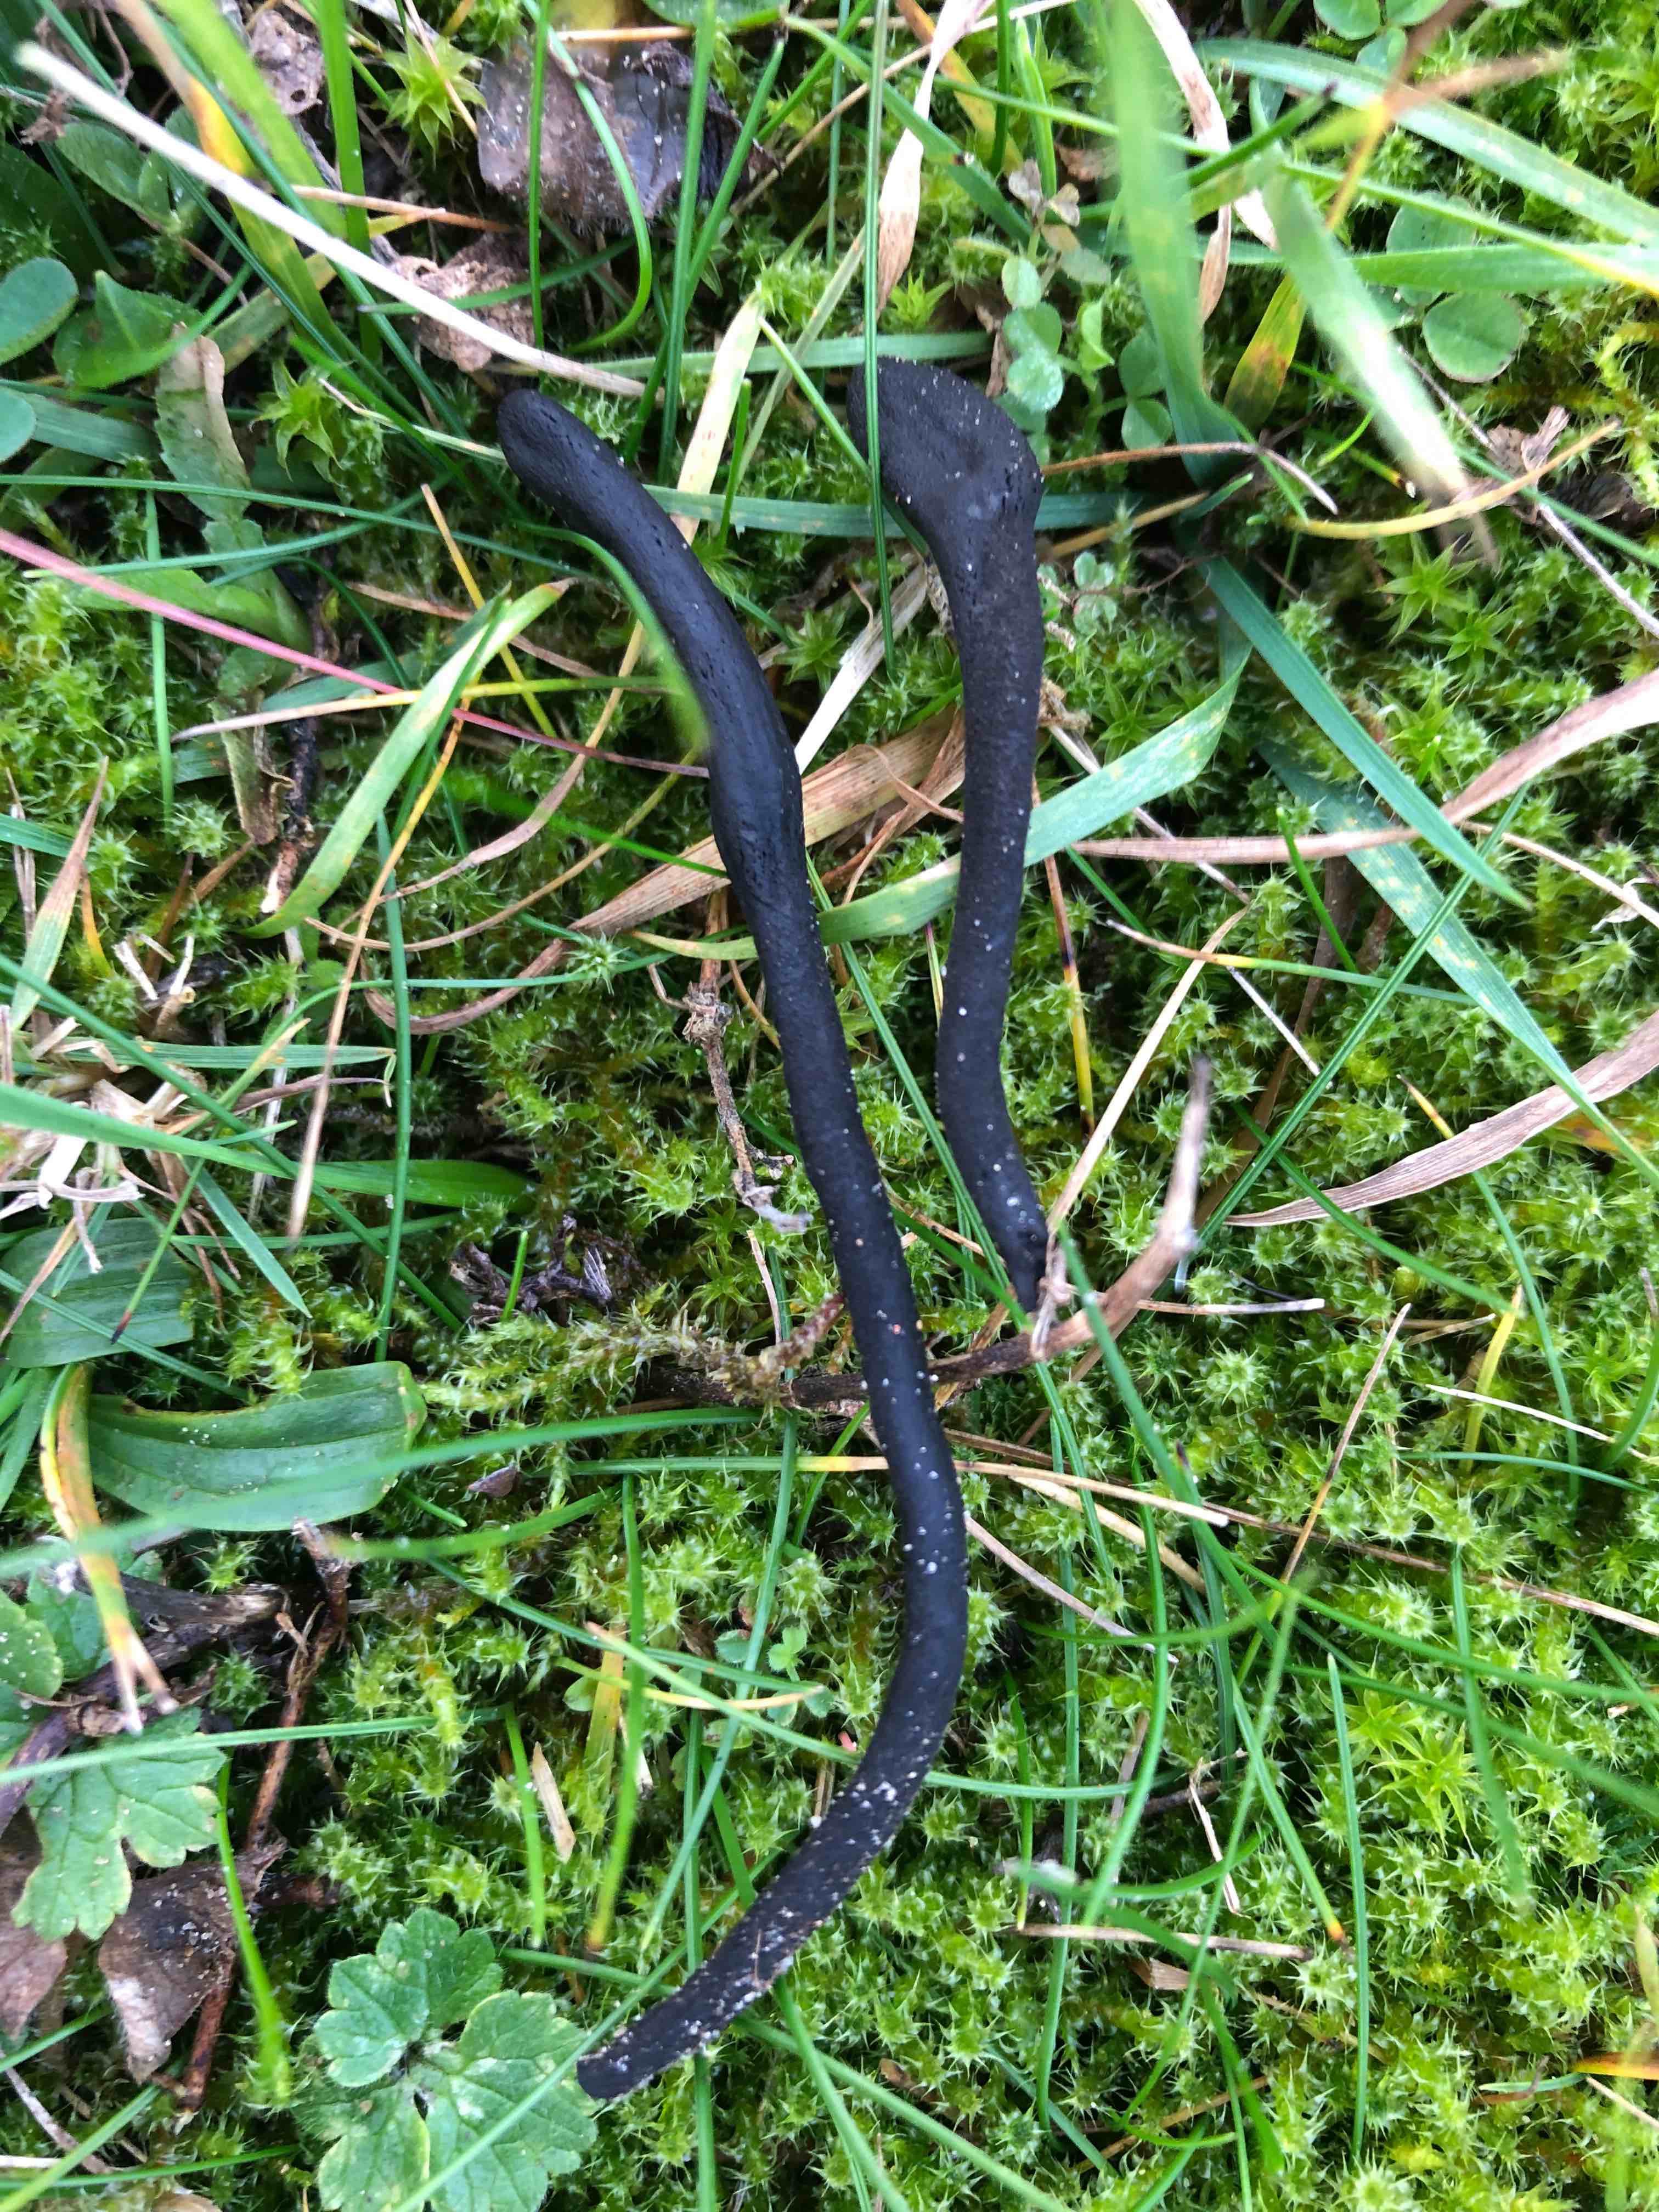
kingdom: Fungi
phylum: Ascomycota
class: Geoglossomycetes
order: Geoglossales
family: Geoglossaceae
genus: Trichoglossum
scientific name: Trichoglossum hirsutum
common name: håret jordtunge
